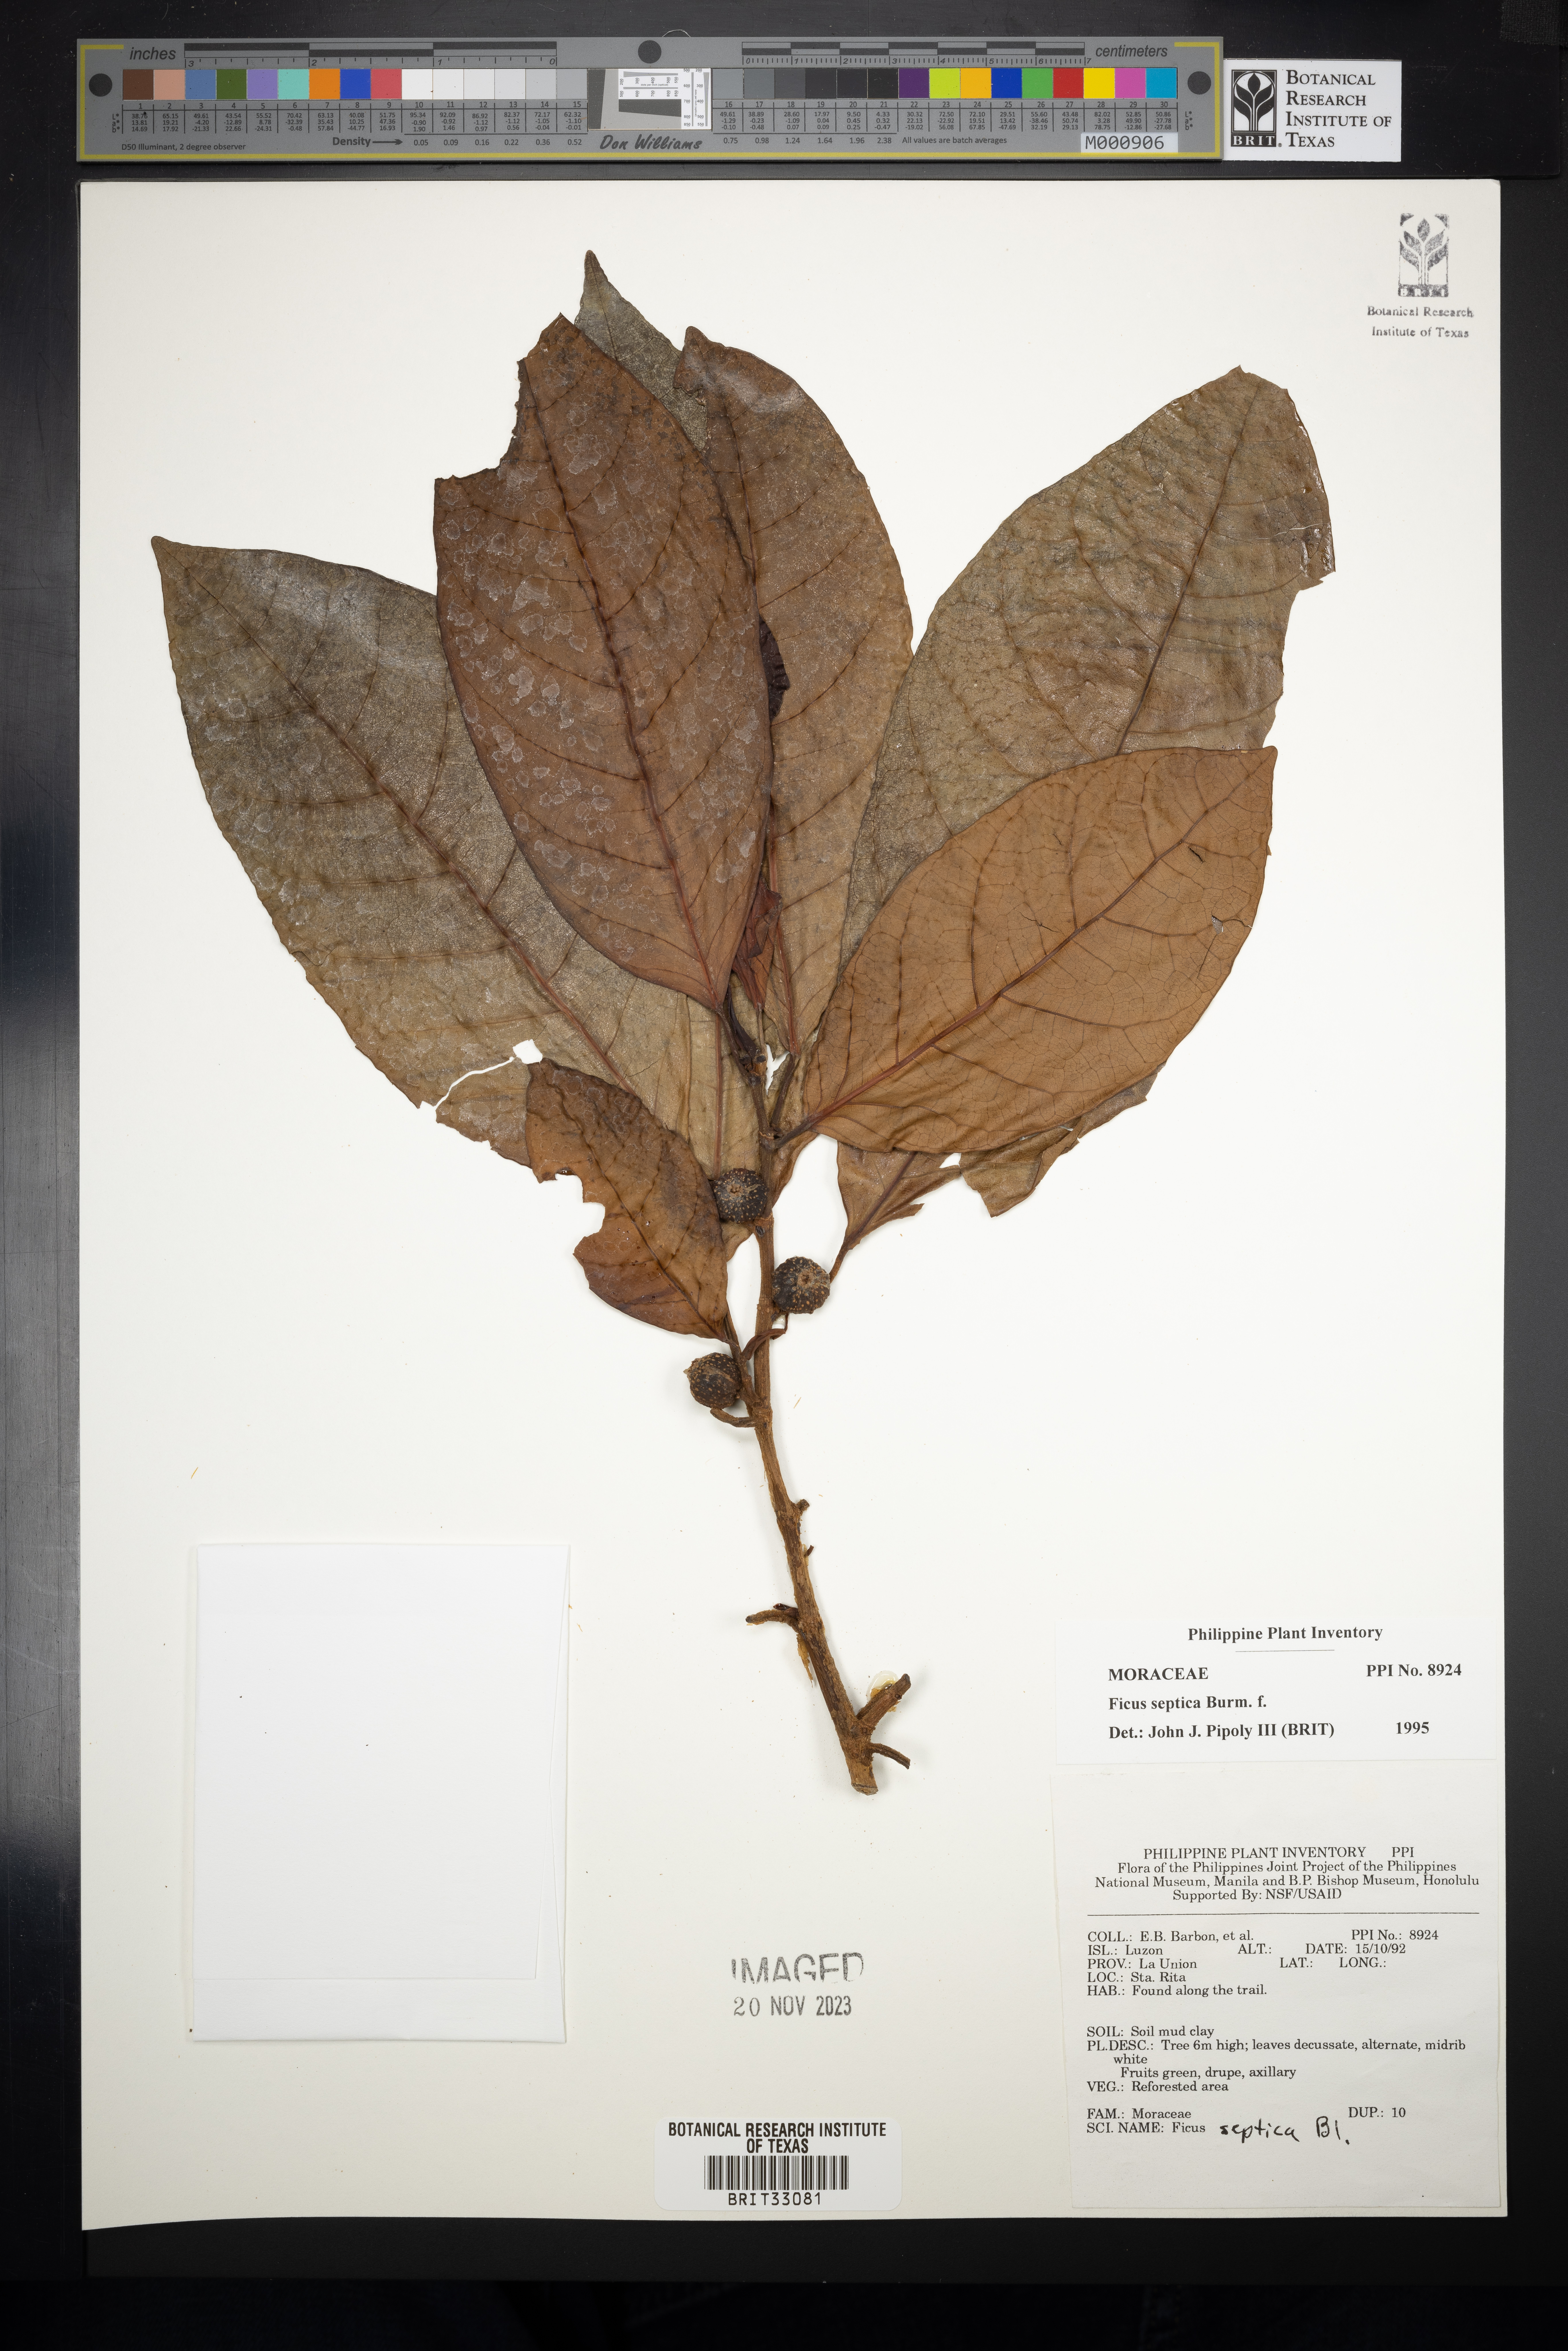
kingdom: Plantae
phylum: Tracheophyta
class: Magnoliopsida
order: Rosales
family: Moraceae
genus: Ficus
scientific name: Ficus septica
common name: Septic fig
